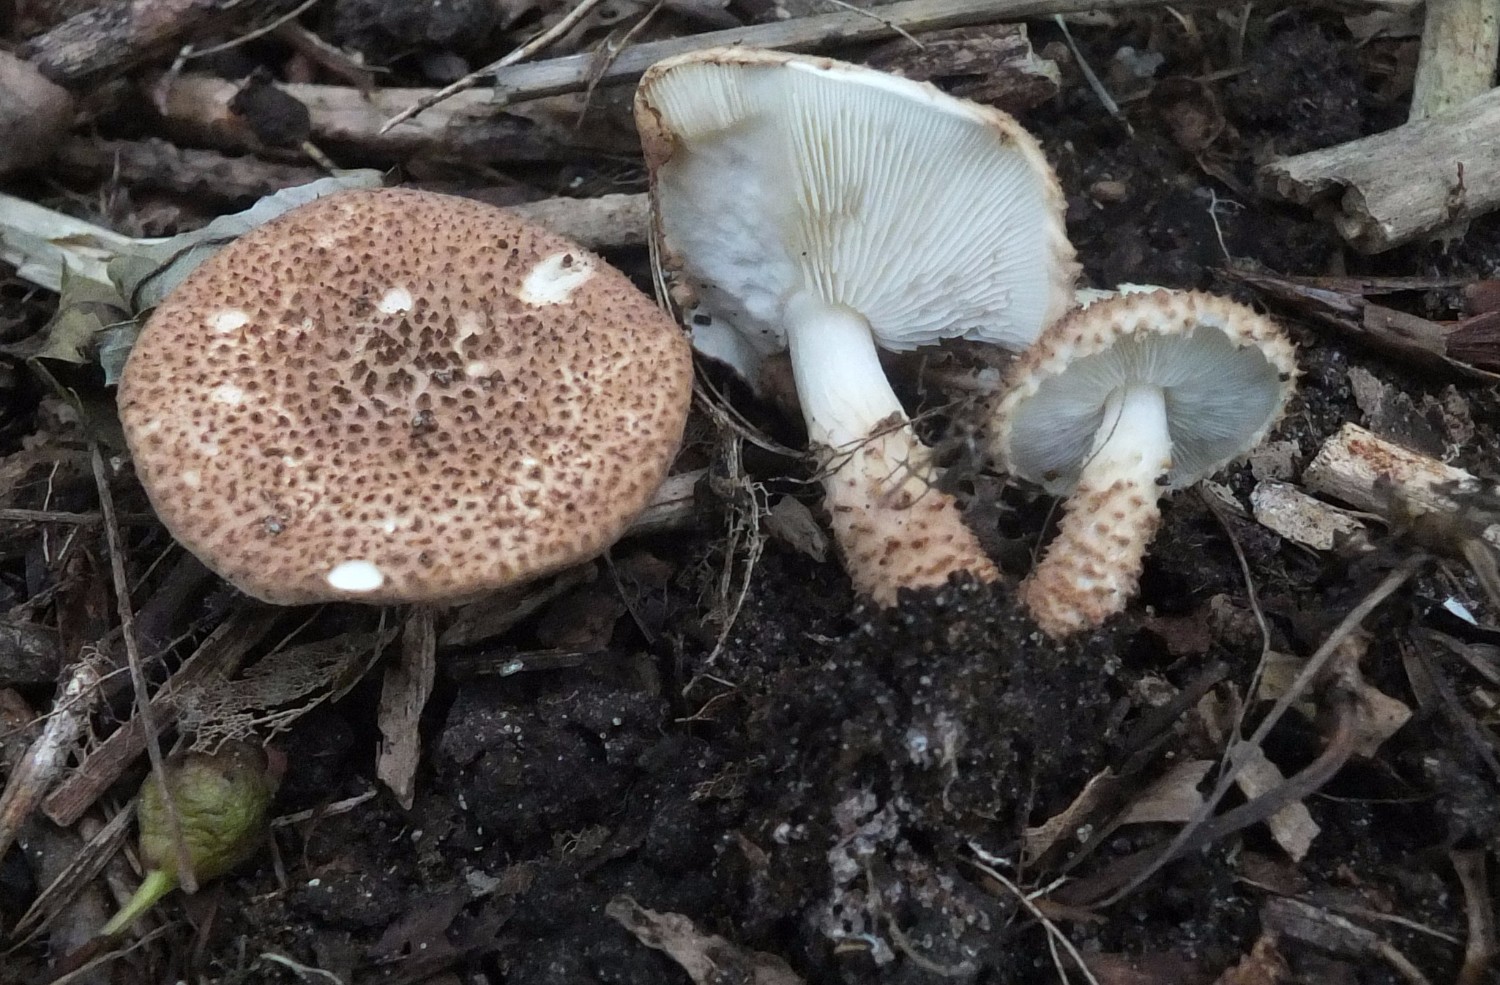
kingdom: Fungi
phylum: Basidiomycota
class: Agaricomycetes
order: Agaricales
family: Agaricaceae
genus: Echinoderma
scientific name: Echinoderma jacobi
